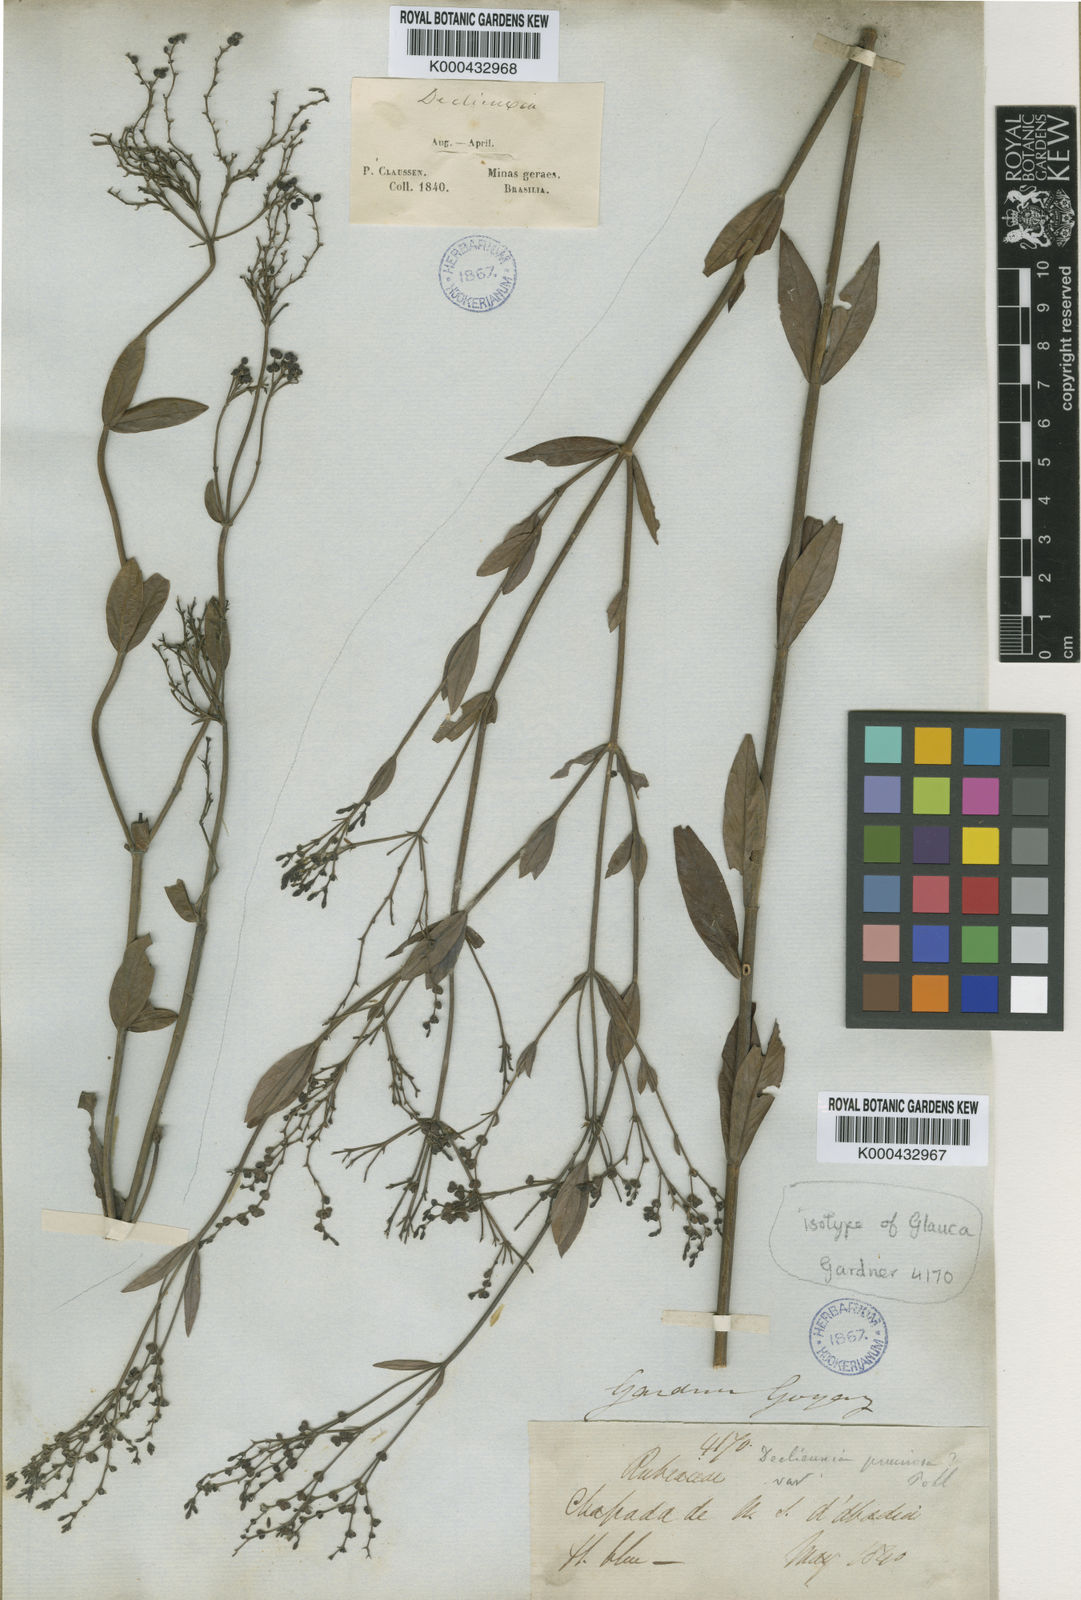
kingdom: Plantae
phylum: Tracheophyta
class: Magnoliopsida
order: Gentianales
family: Rubiaceae
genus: Declieuxia
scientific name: Declieuxia pruinosa
